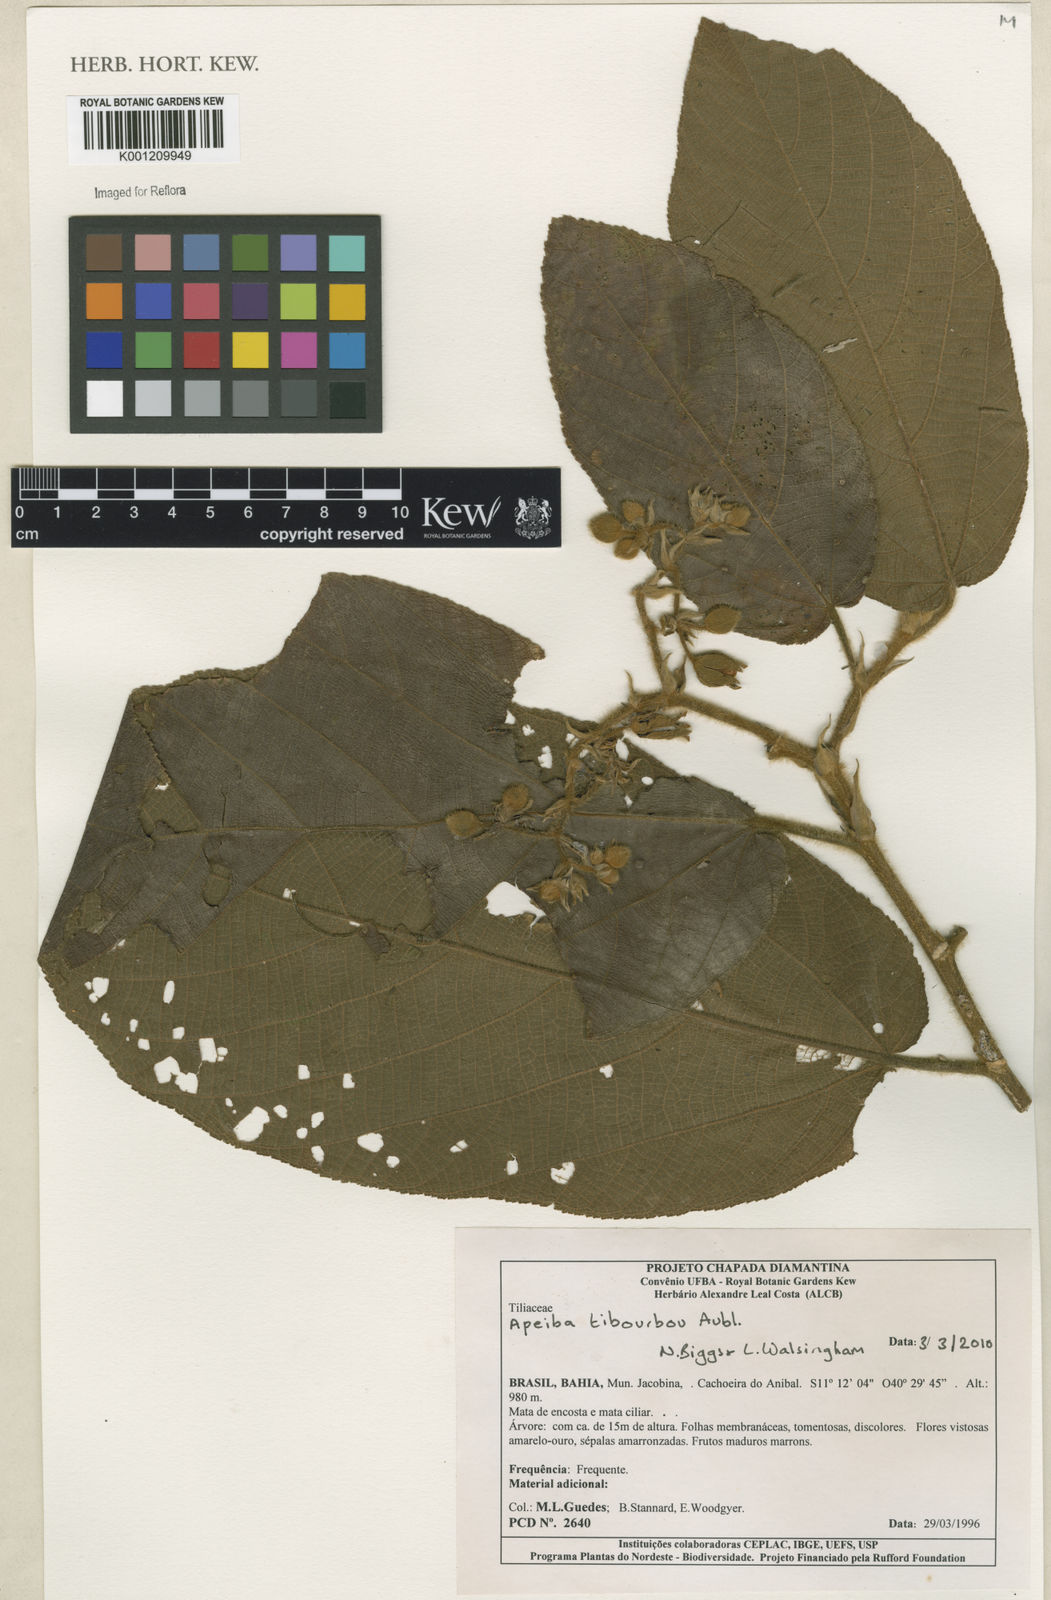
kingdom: Plantae
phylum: Tracheophyta
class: Magnoliopsida
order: Malvales
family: Malvaceae
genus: Apeiba
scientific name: Apeiba tibourbou
